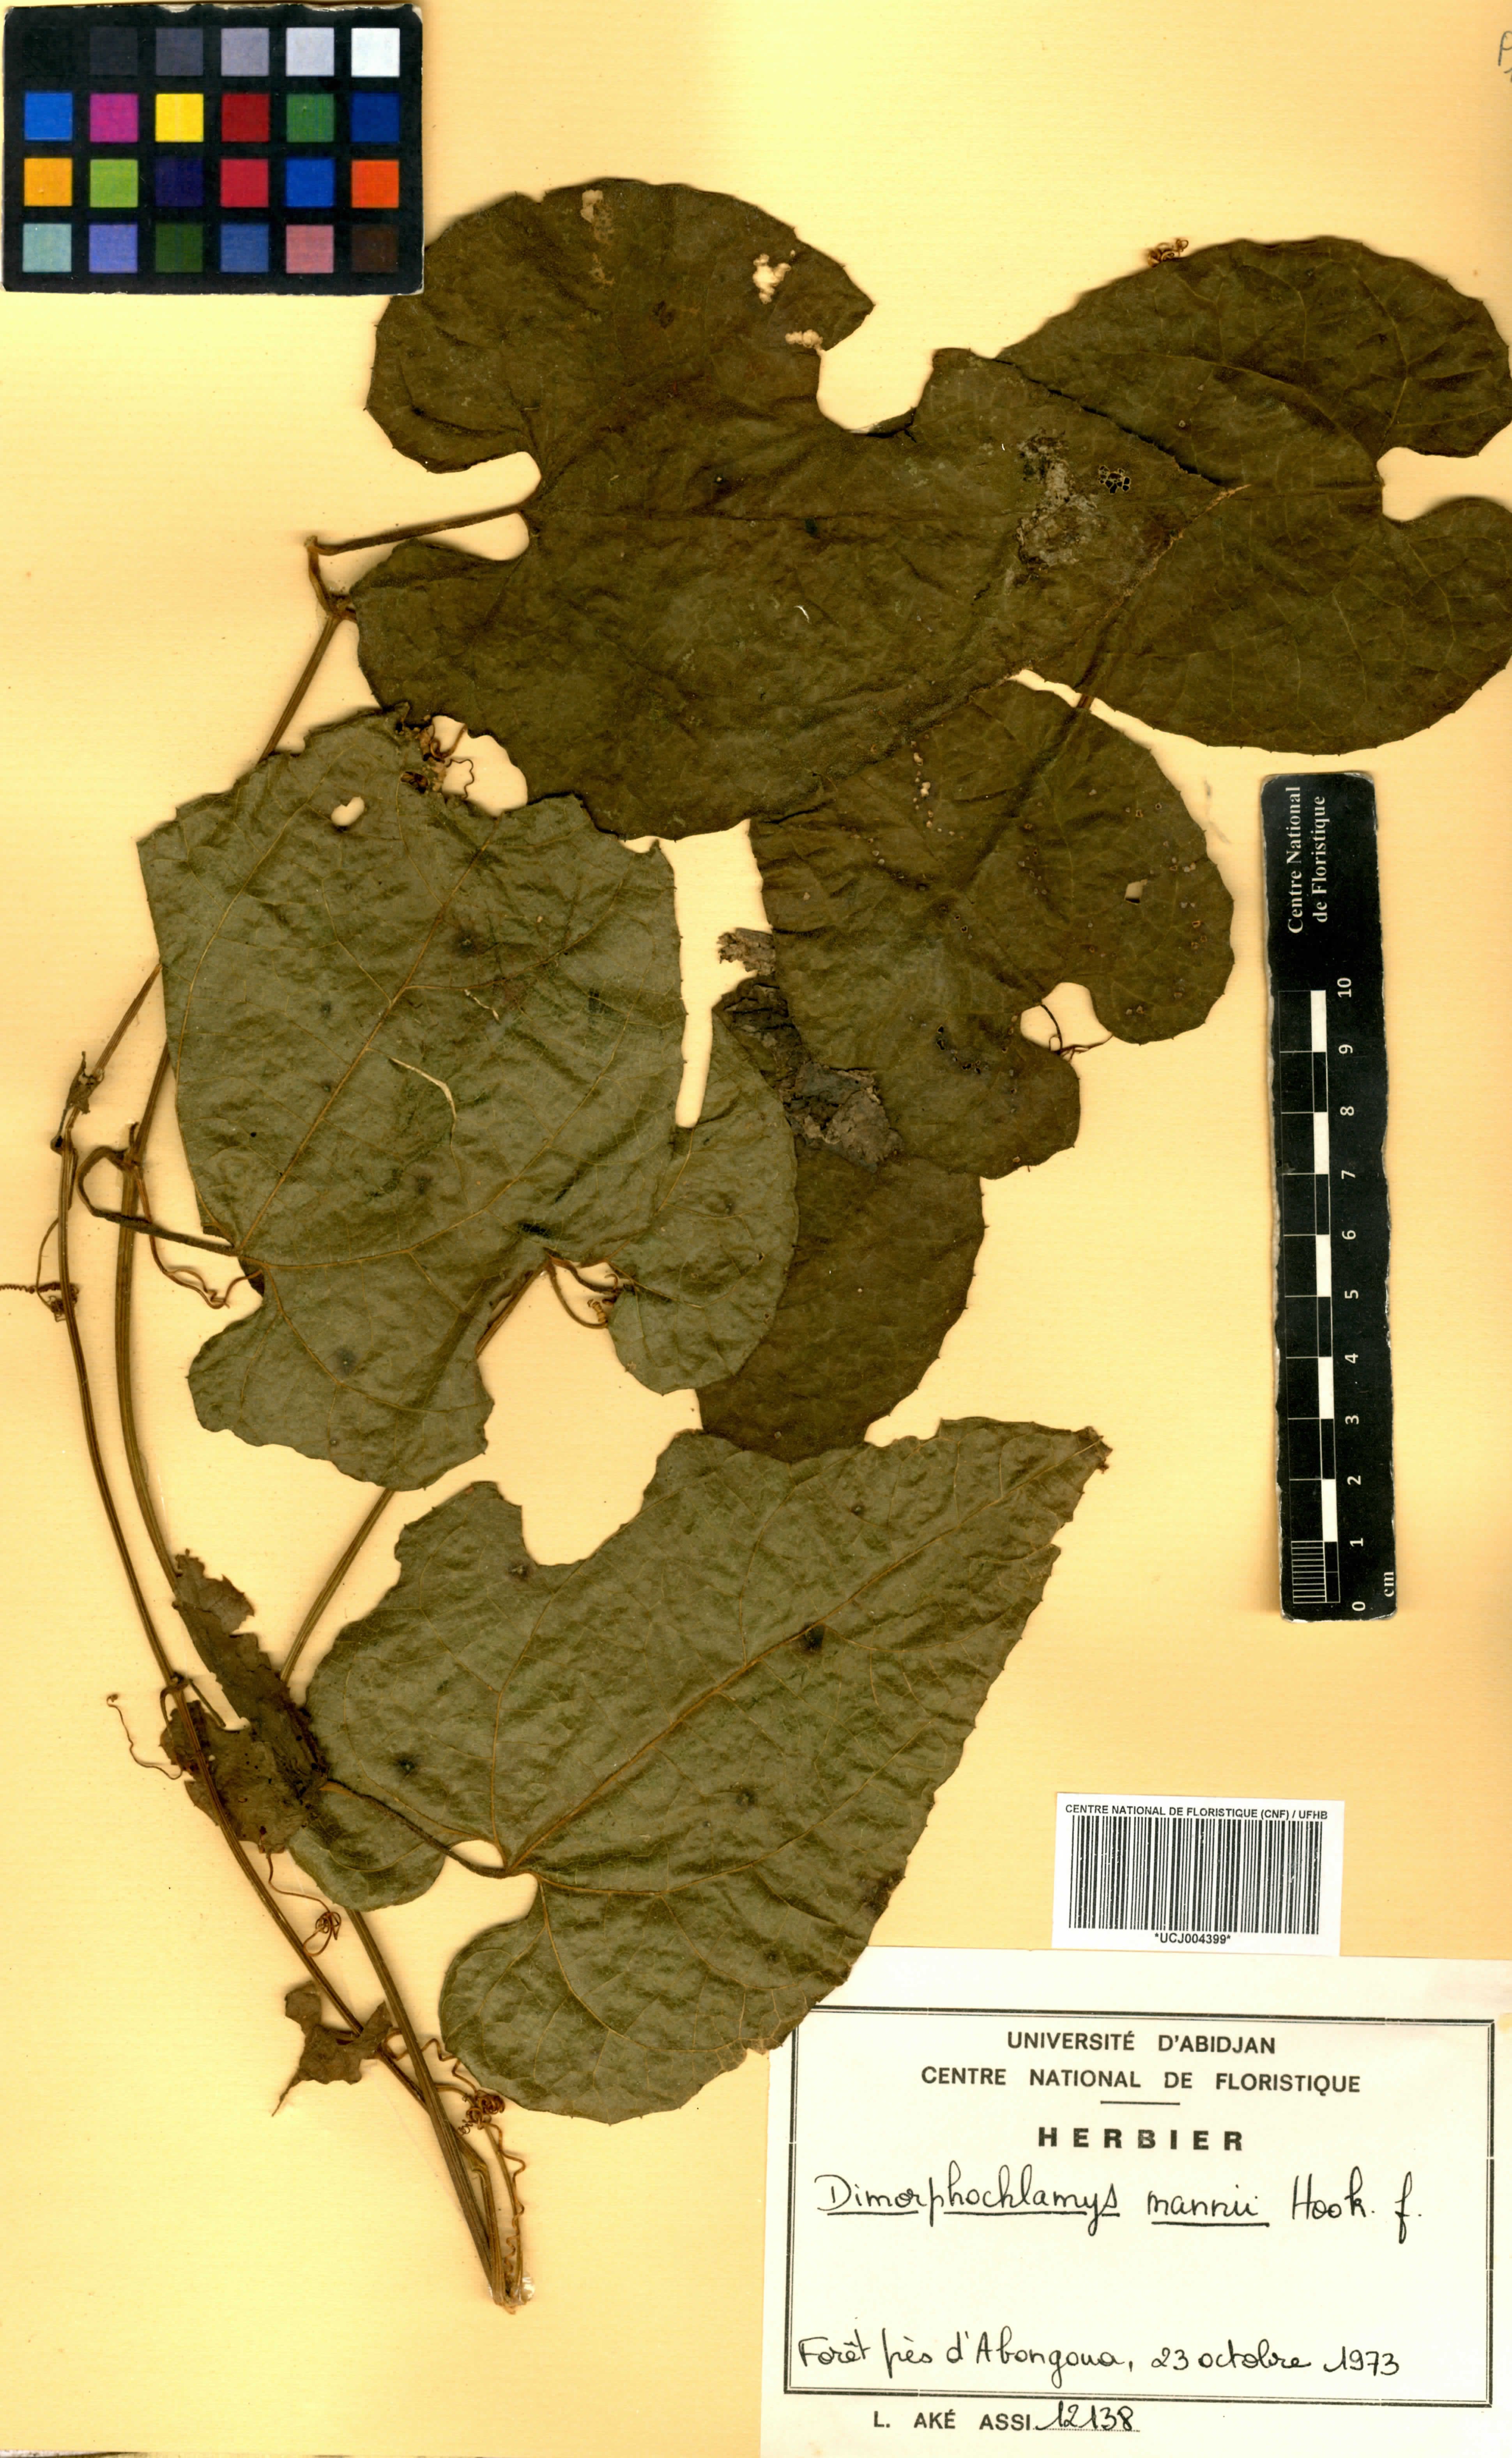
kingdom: Plantae
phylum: Tracheophyta
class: Magnoliopsida
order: Cucurbitales
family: Cucurbitaceae
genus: Momordica
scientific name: Momordica cabrae
